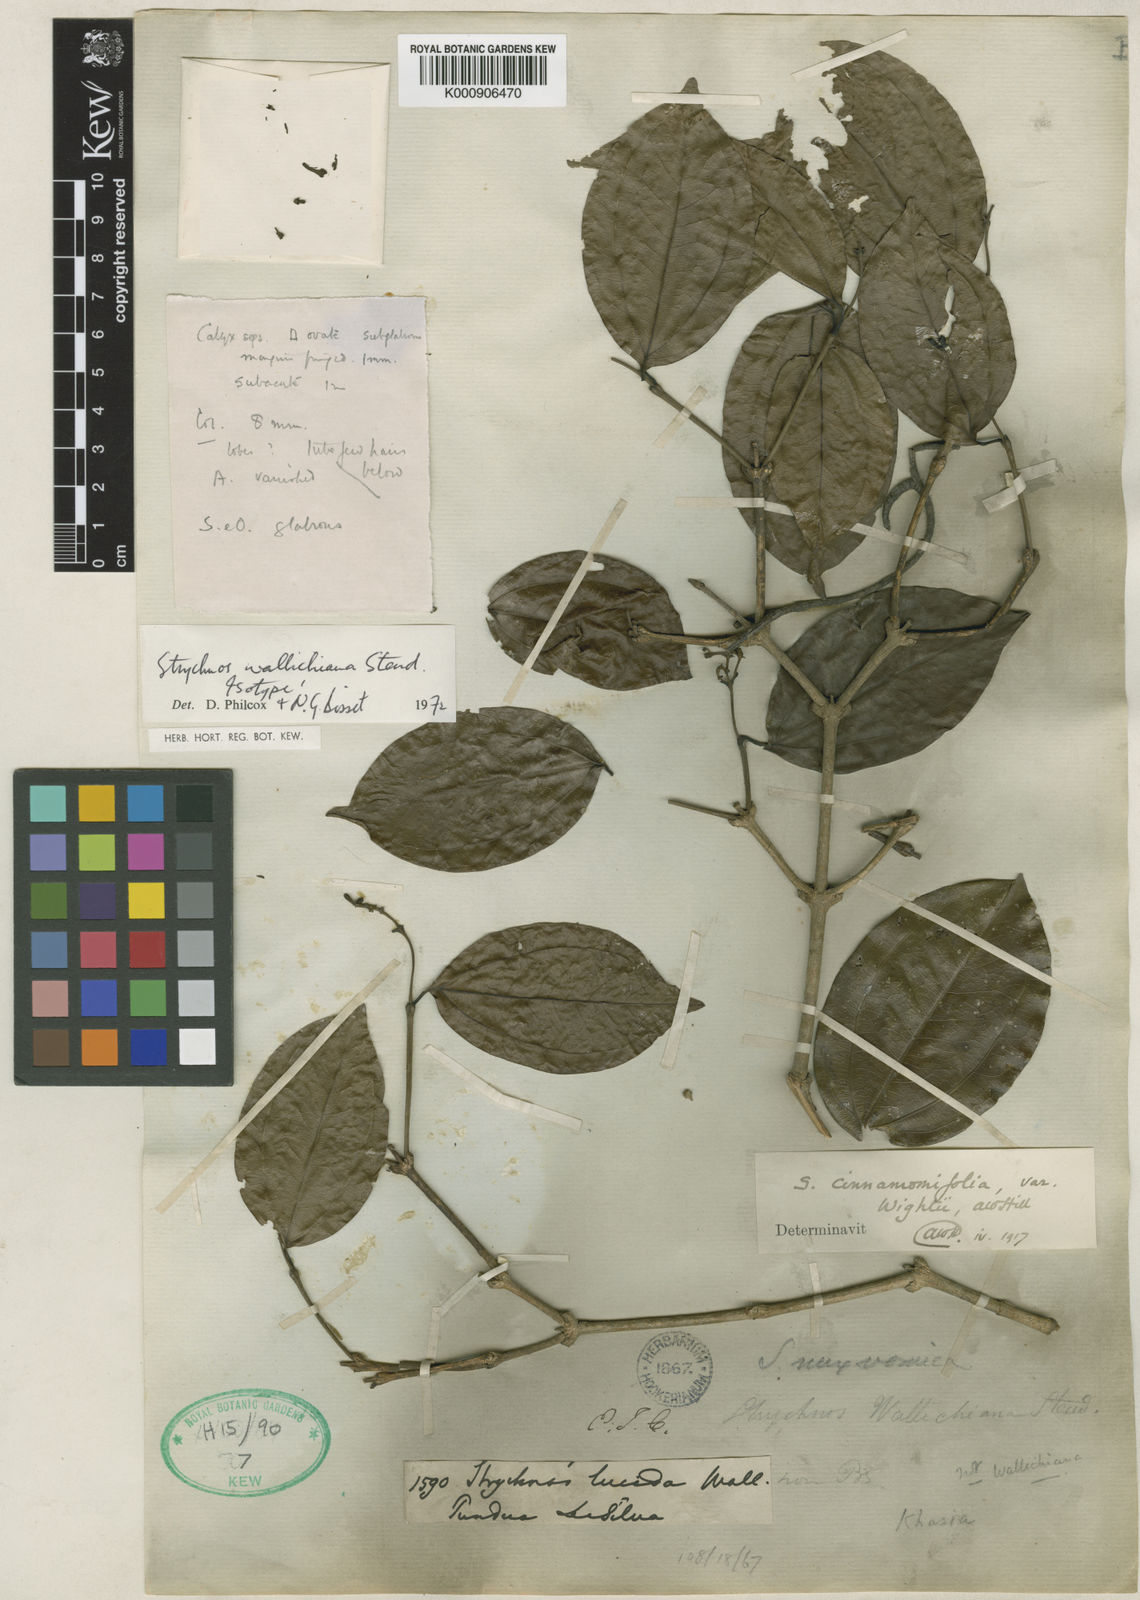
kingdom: Plantae
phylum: Tracheophyta
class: Magnoliopsida
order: Gentianales
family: Loganiaceae
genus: Strychnos
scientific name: Strychnos
